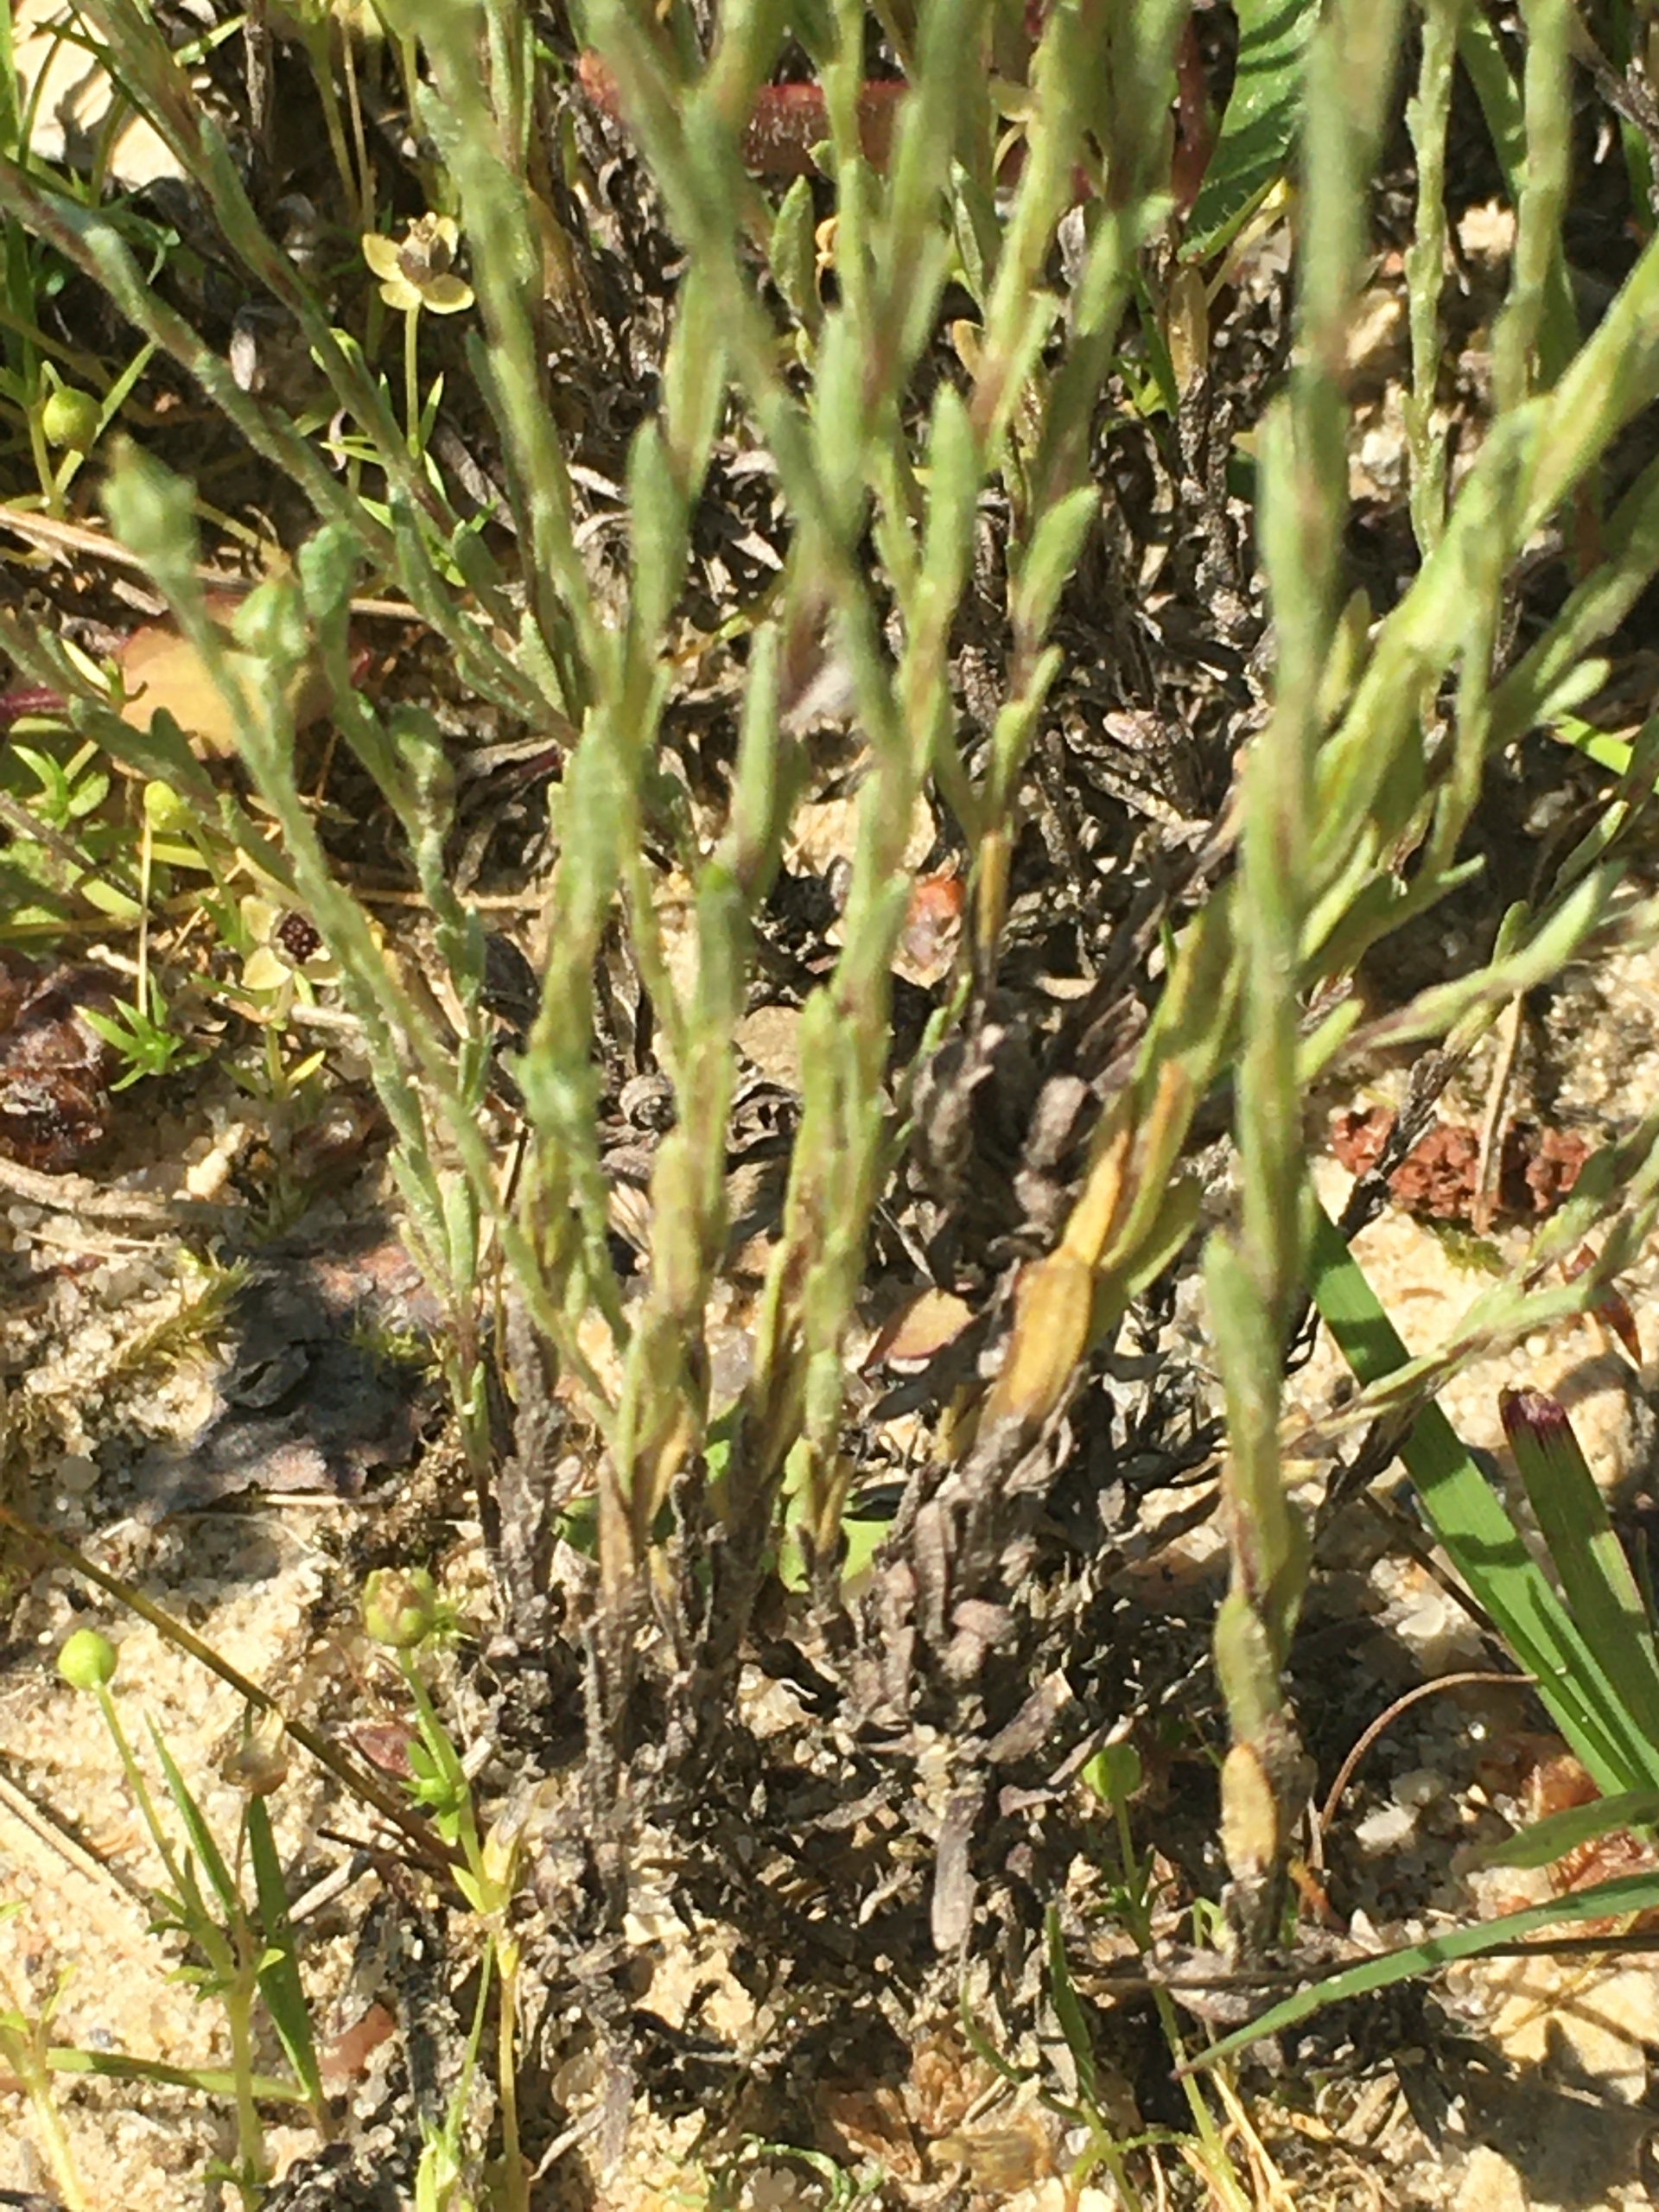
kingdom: Plantae
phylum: Tracheophyta
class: Magnoliopsida
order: Asterales
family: Asteraceae
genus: Logfia
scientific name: Logfia minima
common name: Liden museurt
